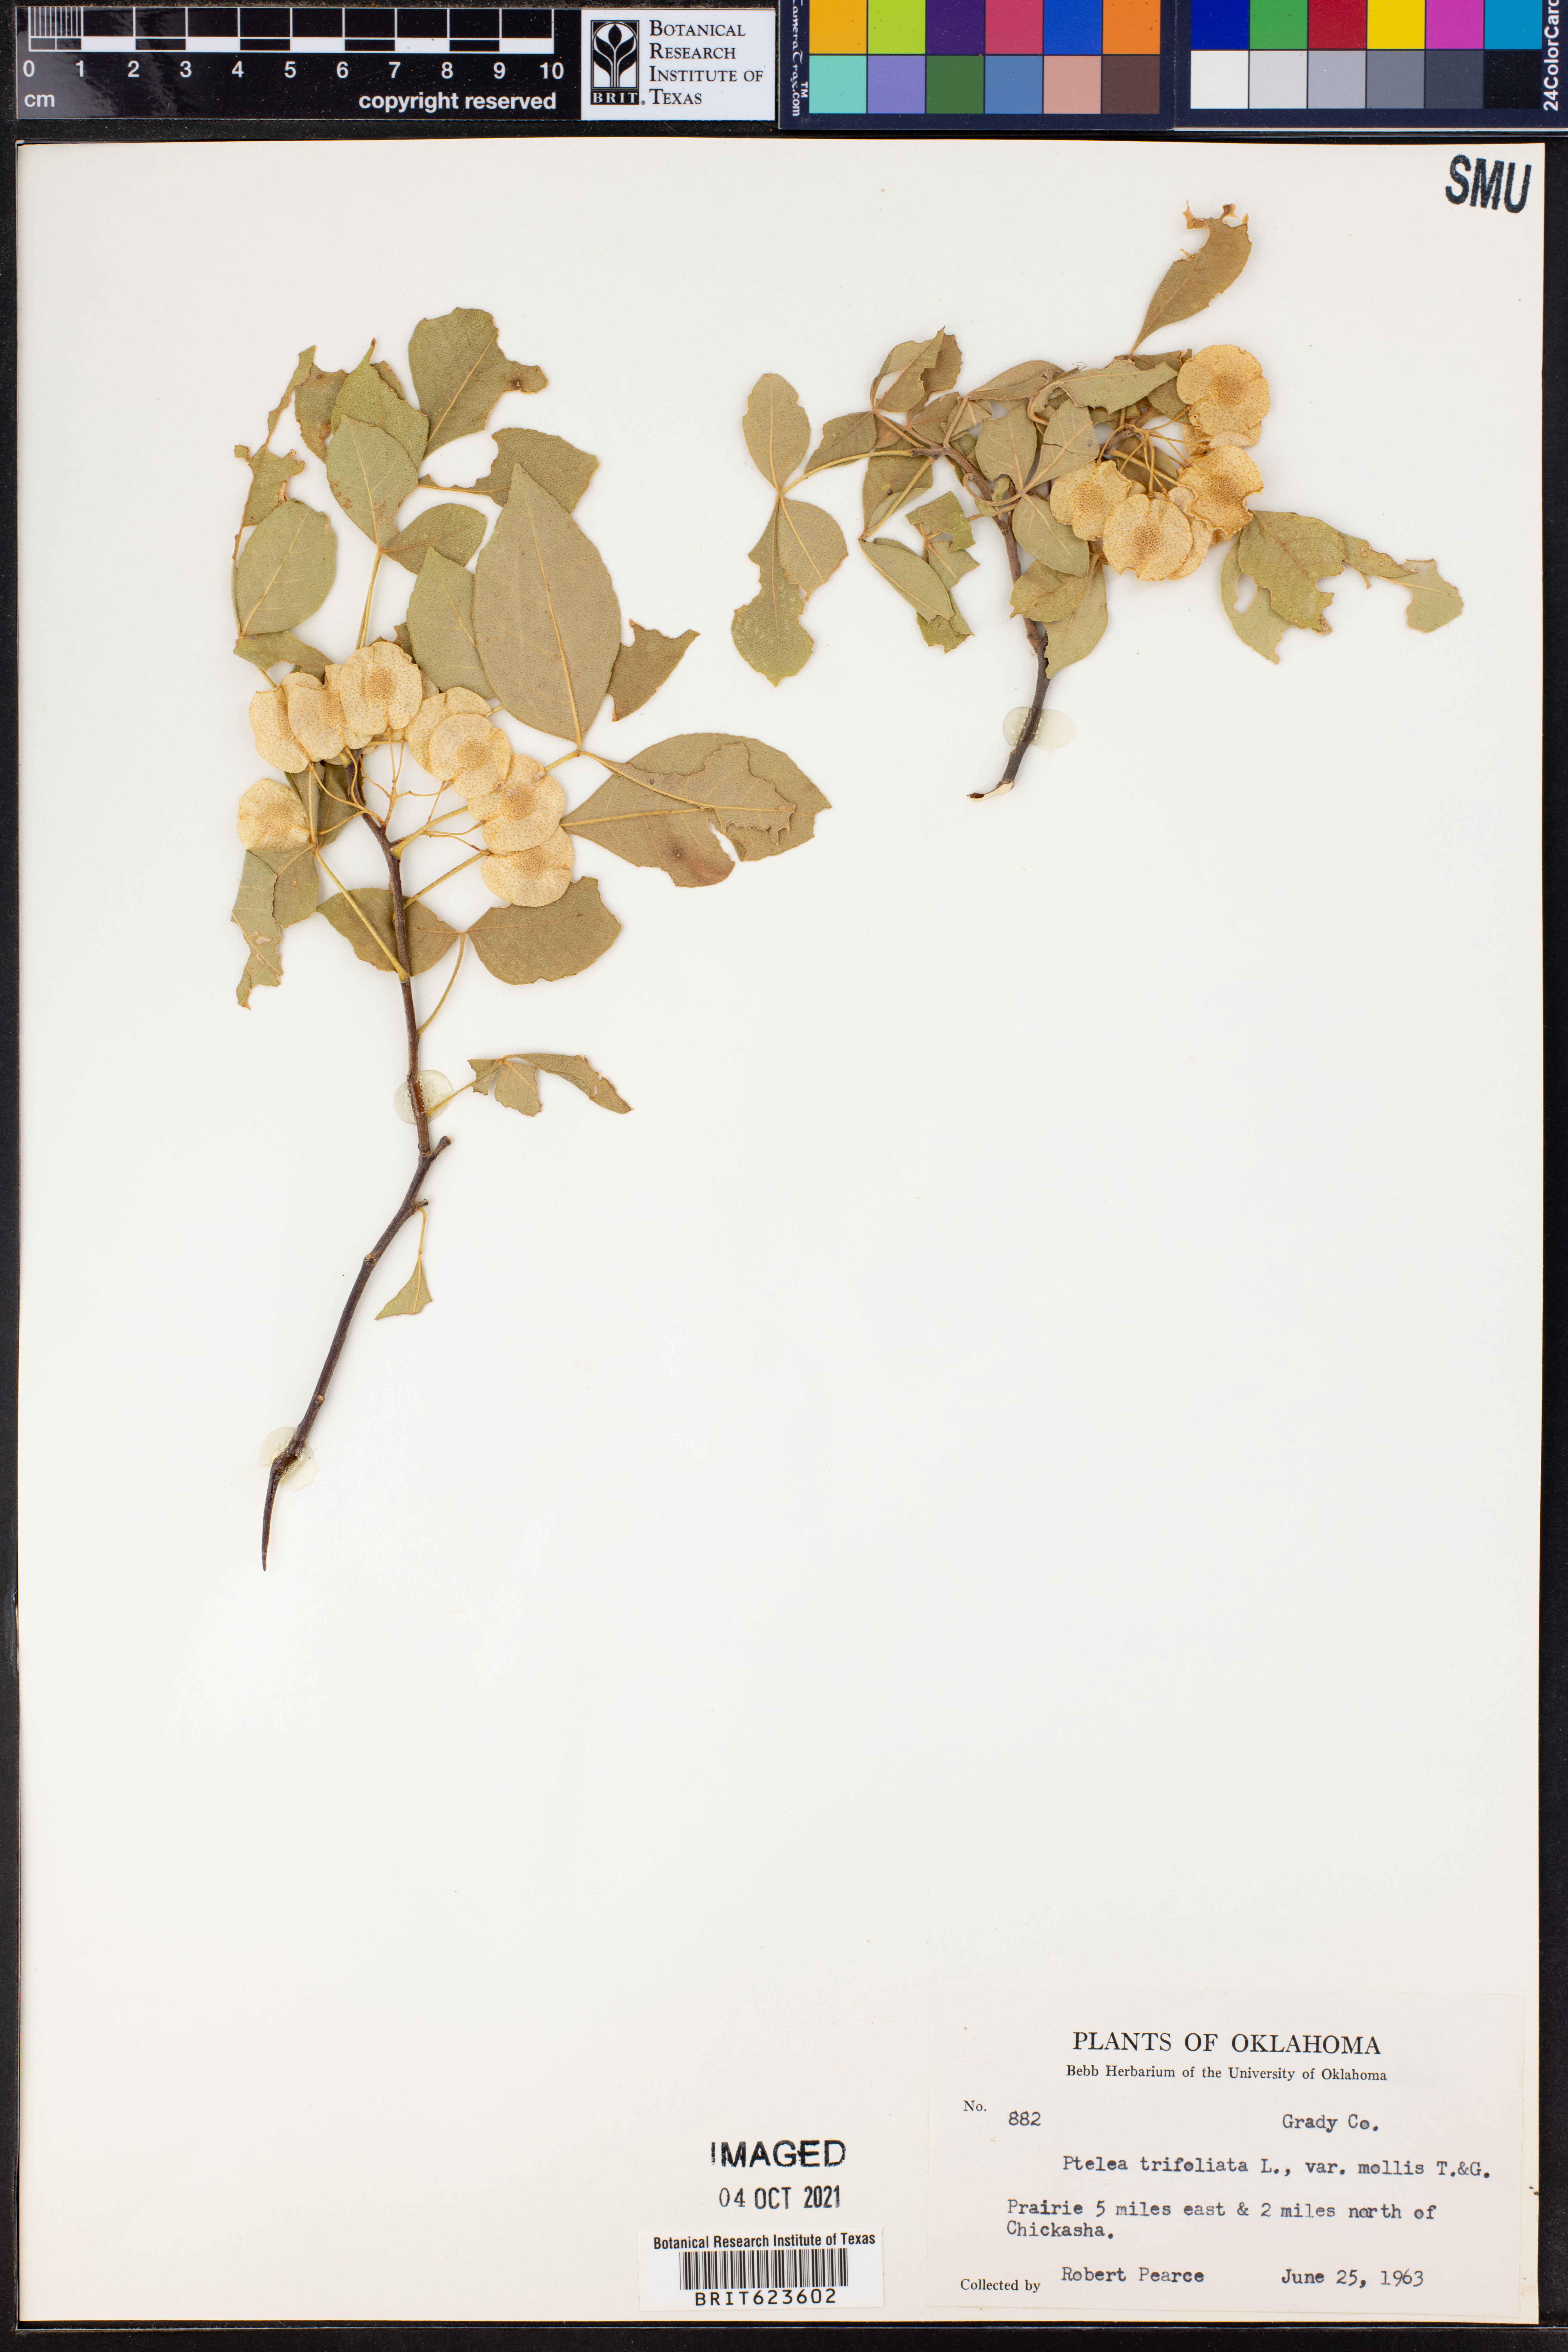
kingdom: Plantae
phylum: Tracheophyta
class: Magnoliopsida
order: Sapindales
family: Rutaceae
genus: Ptelea
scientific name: Ptelea trifoliata
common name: Common hop-tree
